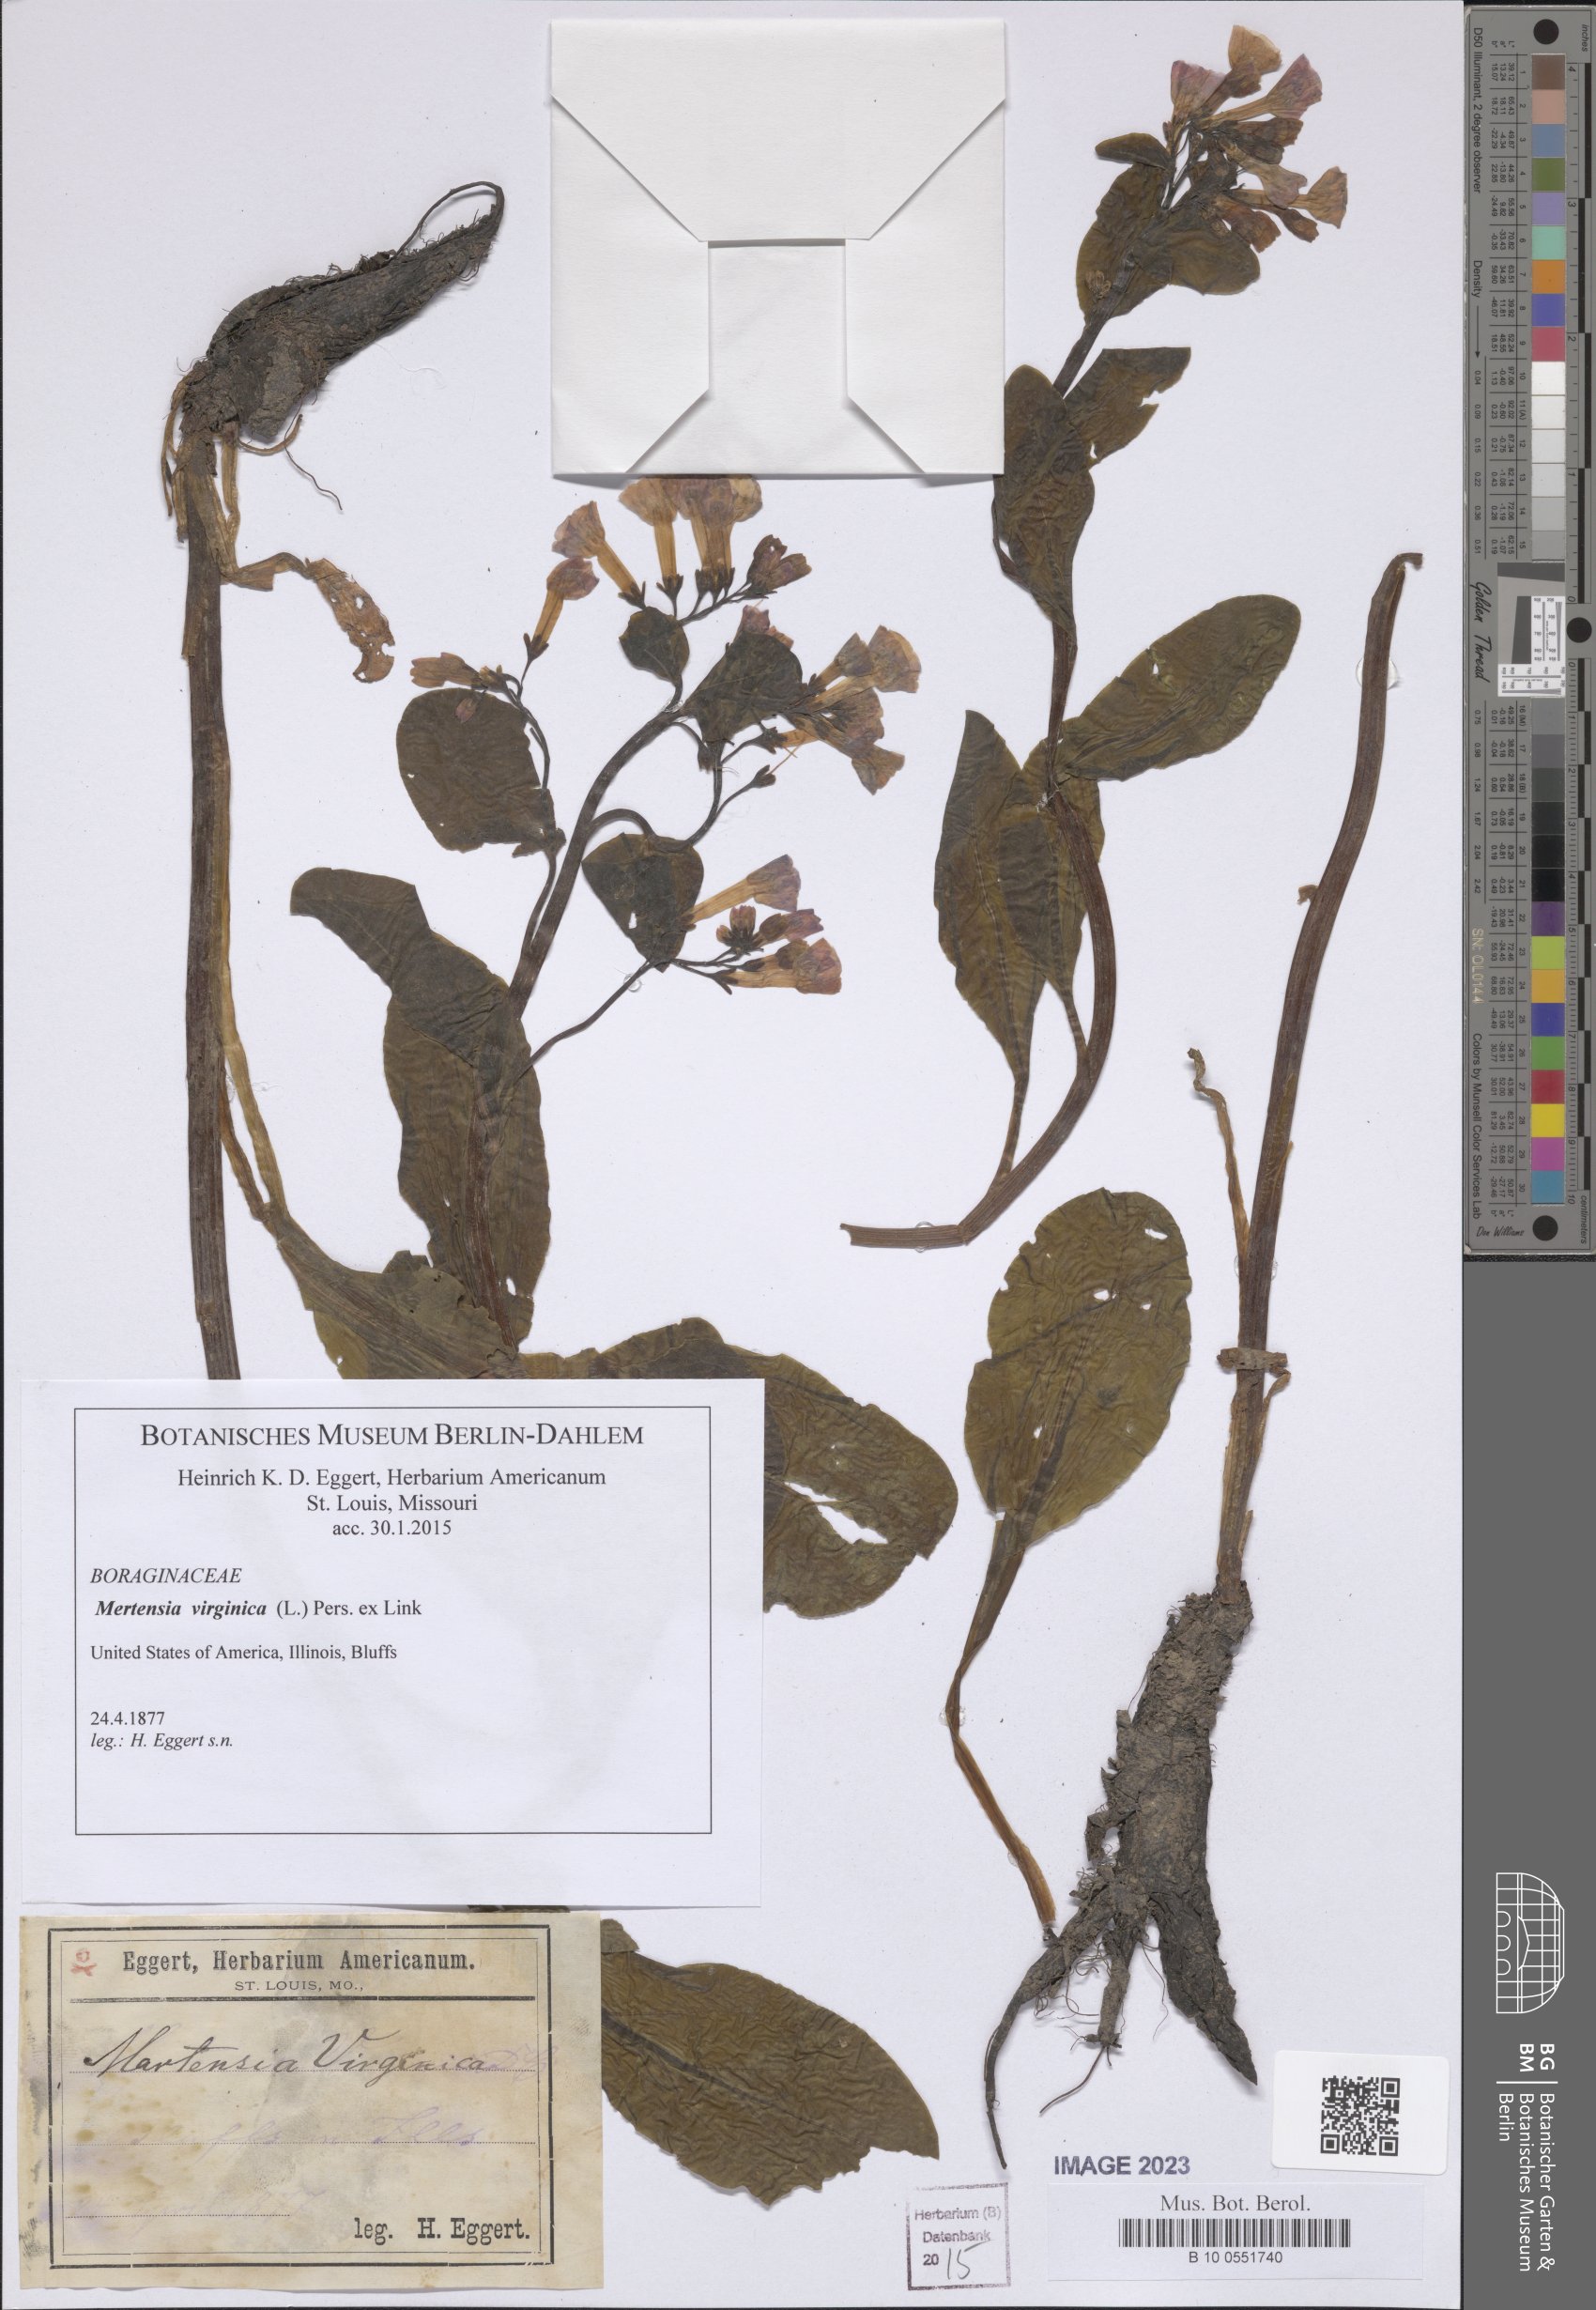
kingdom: Plantae
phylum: Tracheophyta
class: Magnoliopsida
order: Boraginales
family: Boraginaceae
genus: Mertensia
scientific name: Mertensia virginica
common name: Virginia bluebells
